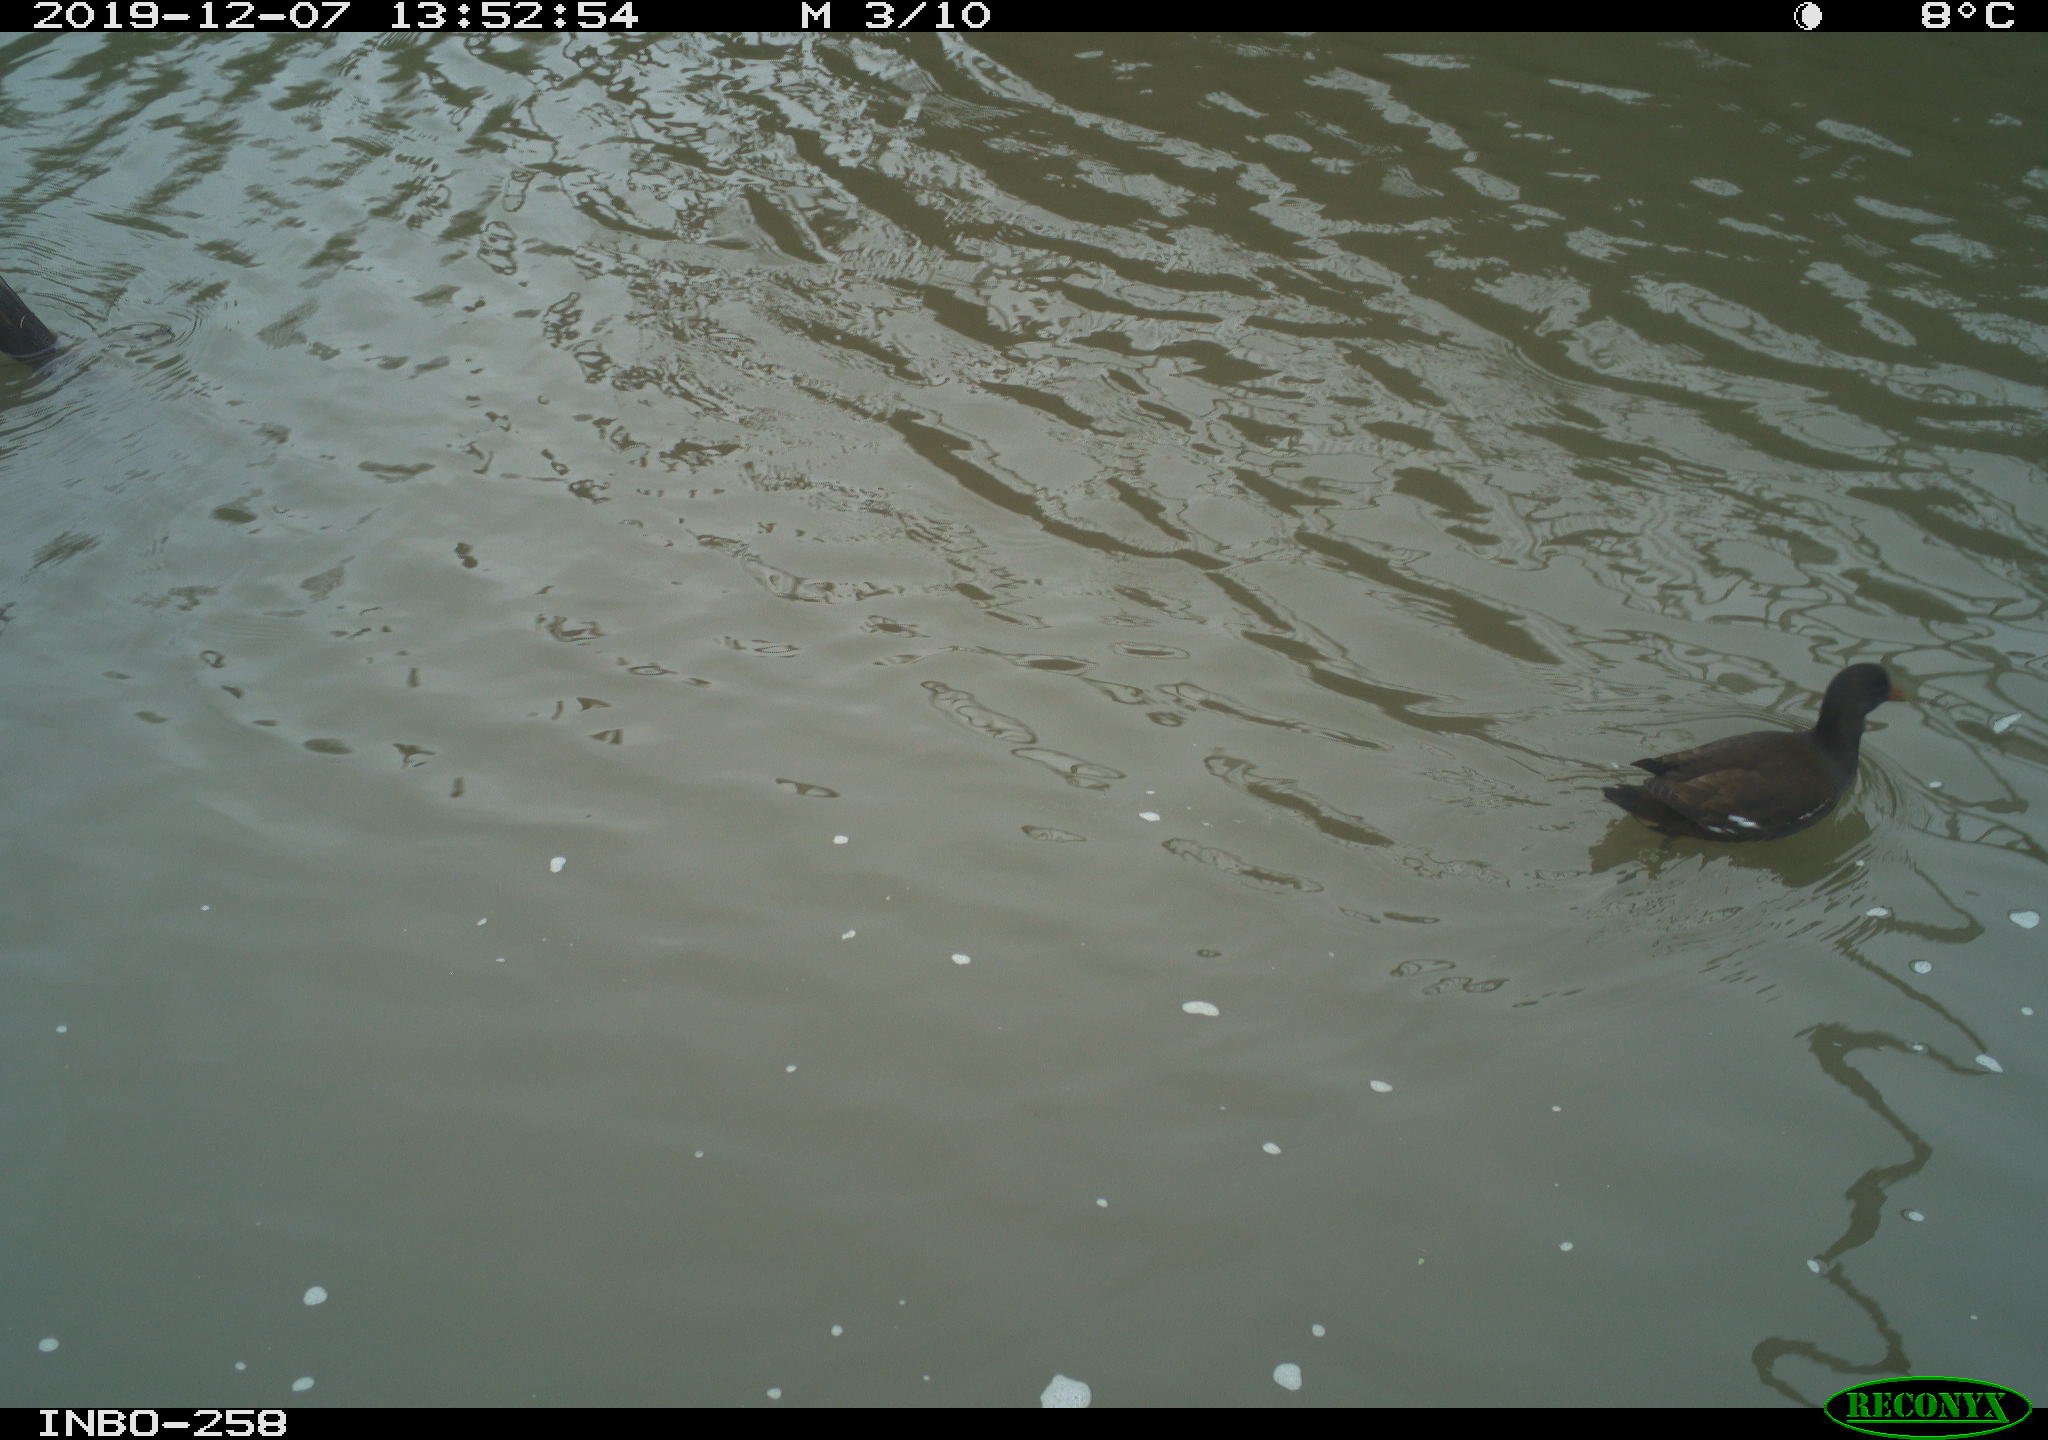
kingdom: Animalia
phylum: Chordata
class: Aves
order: Gruiformes
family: Rallidae
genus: Gallinula
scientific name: Gallinula chloropus
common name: Common moorhen
